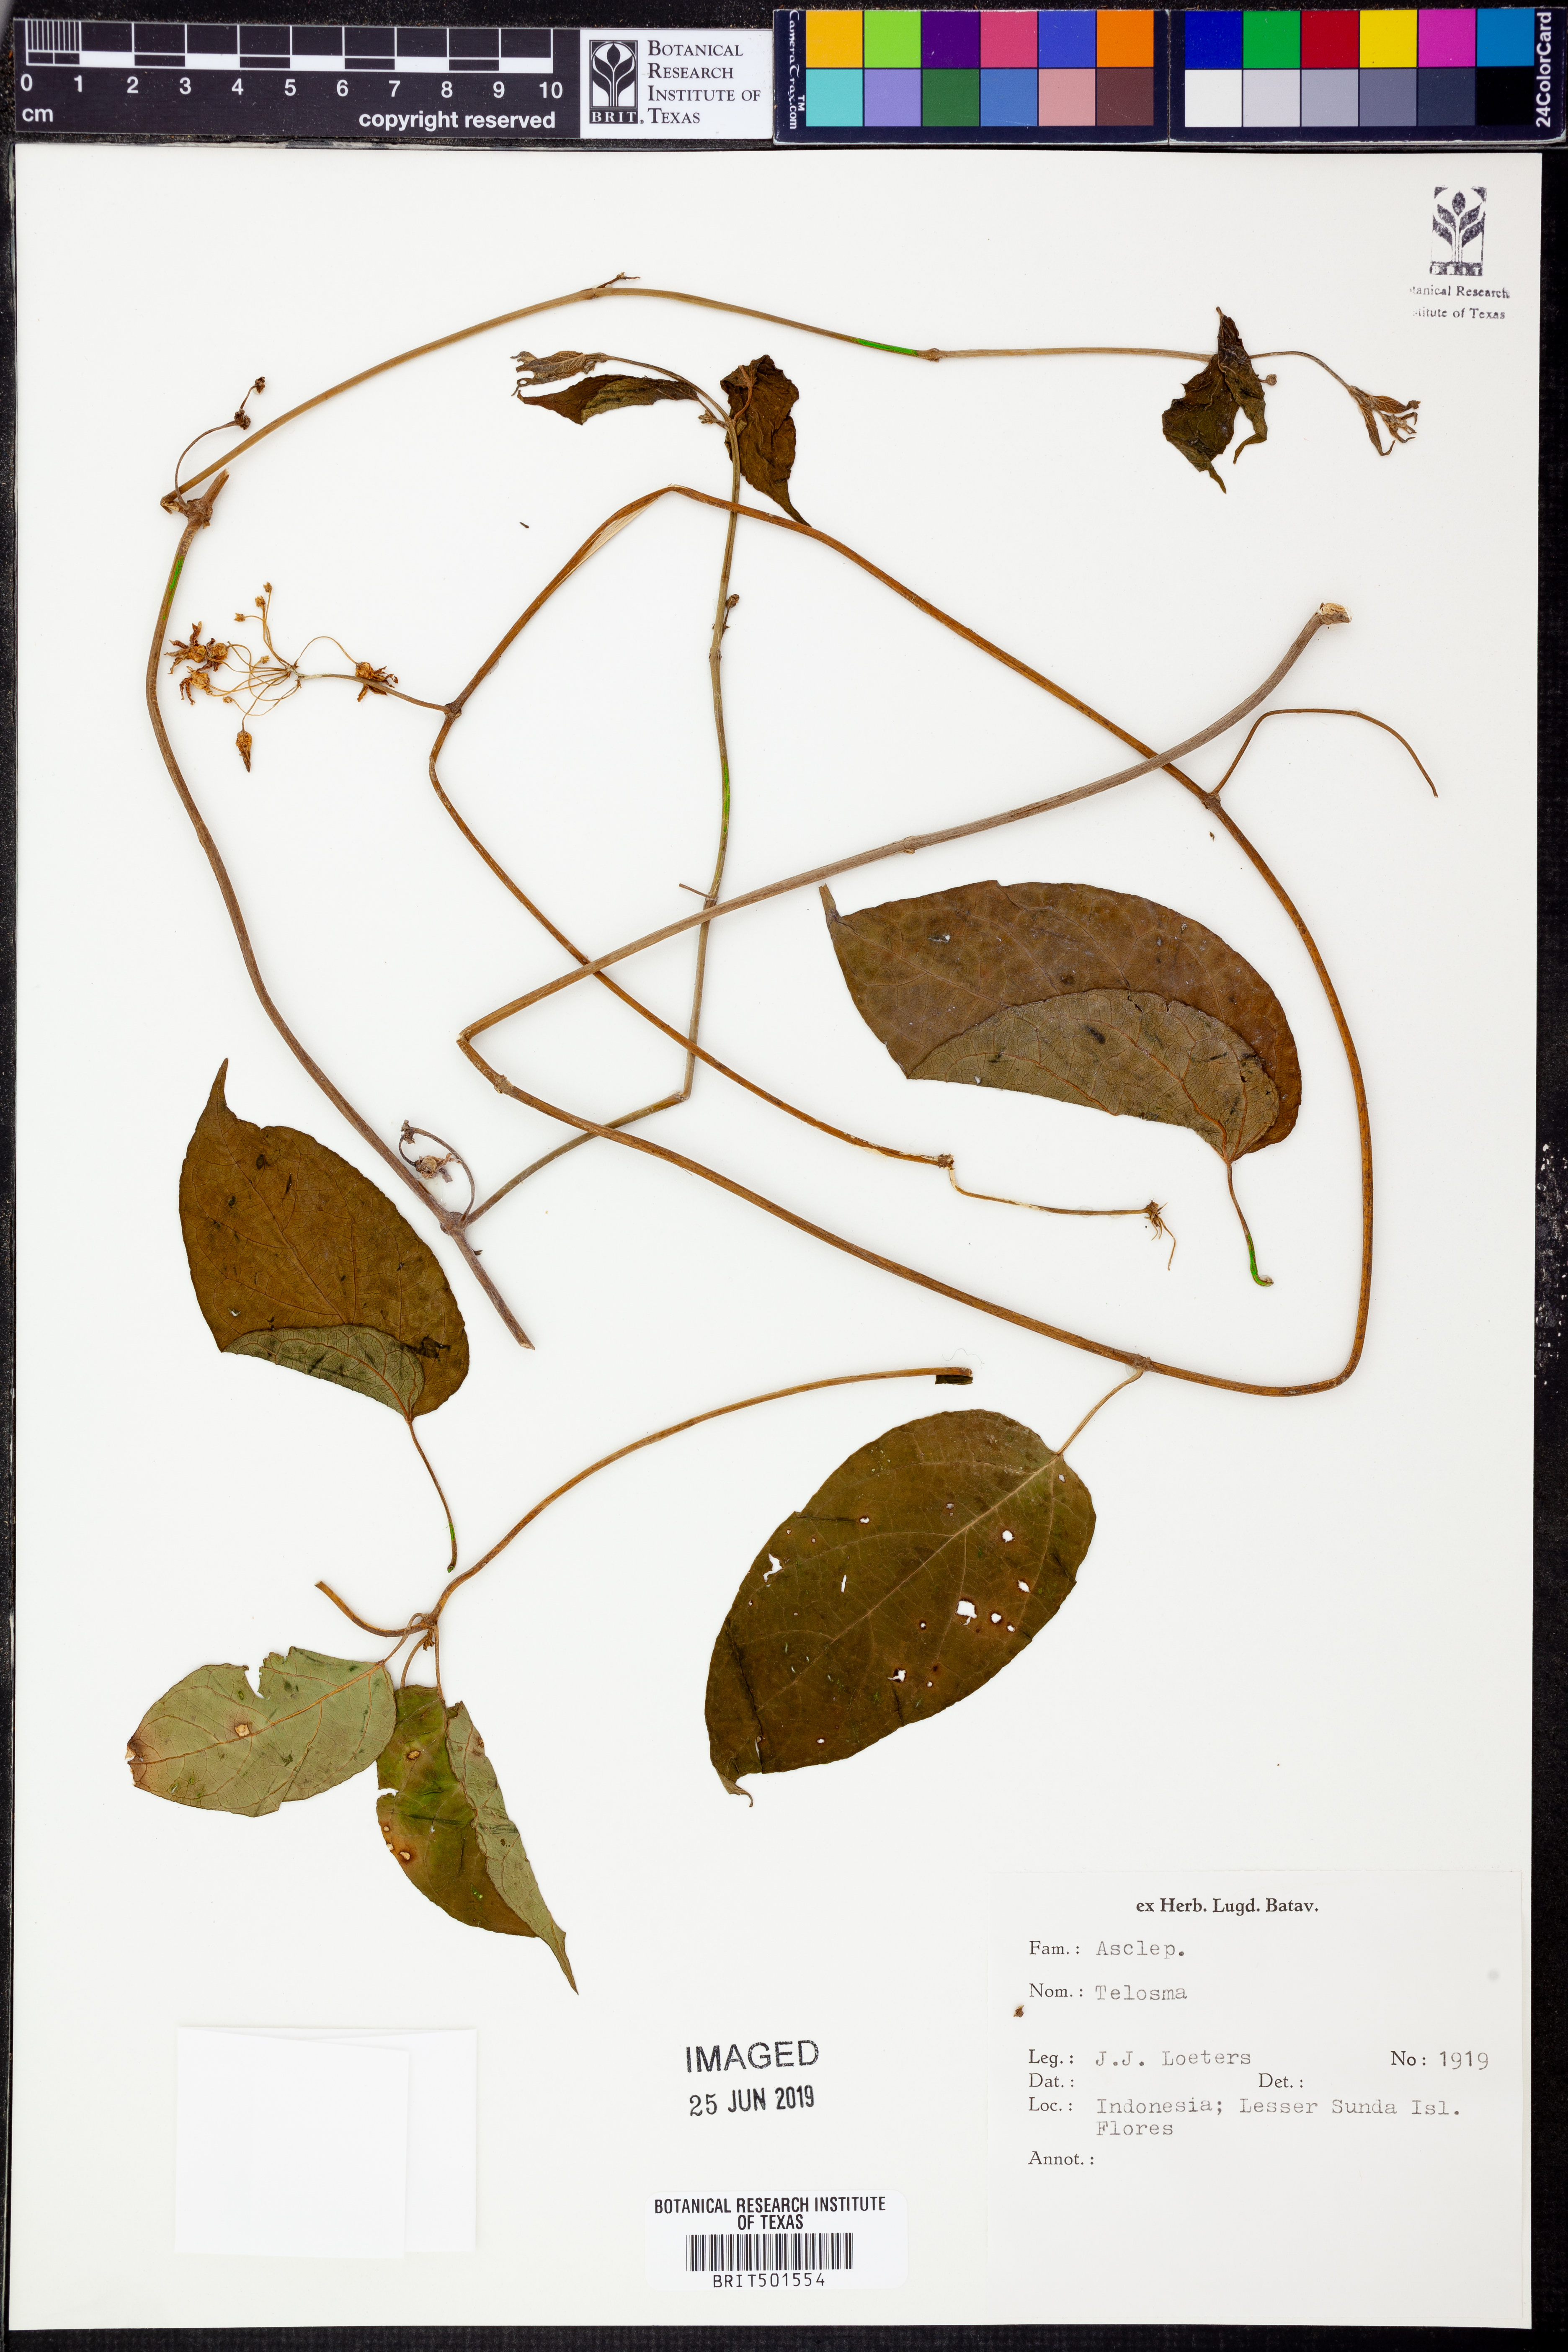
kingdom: Plantae
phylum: Tracheophyta
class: Magnoliopsida
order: Gentianales
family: Apocynaceae
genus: Telosma
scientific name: Telosma
